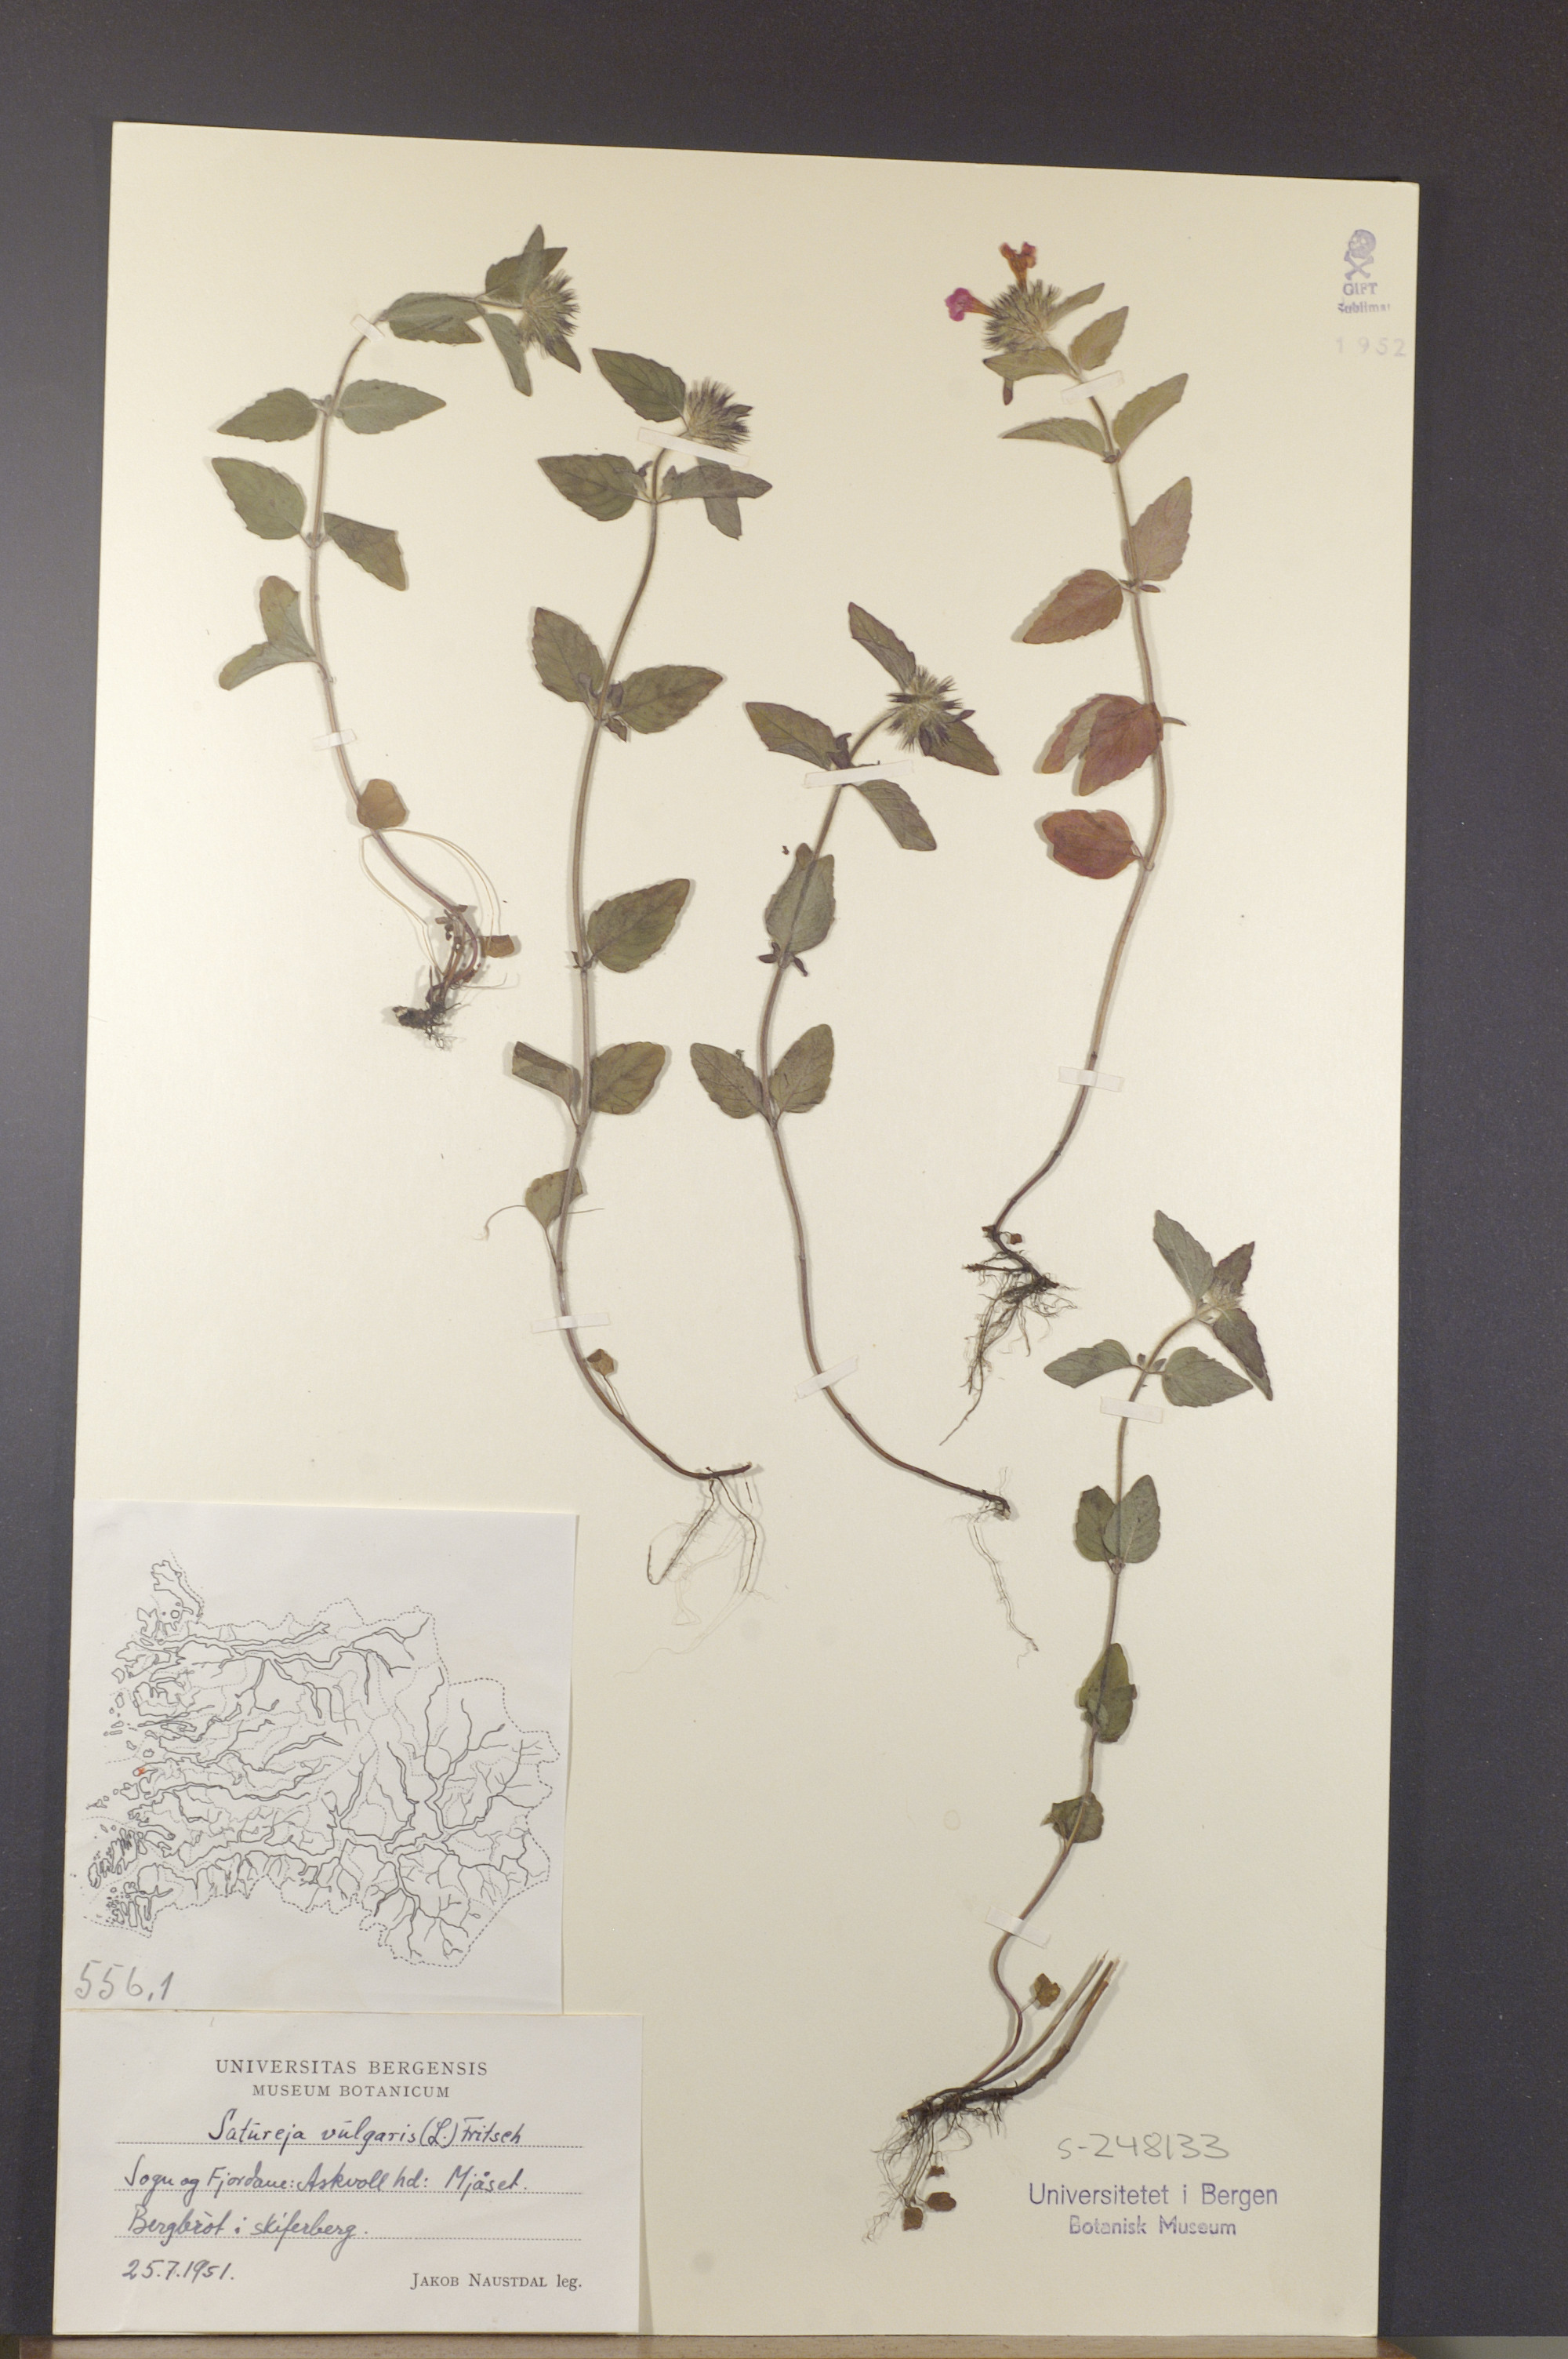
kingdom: Plantae
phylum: Tracheophyta
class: Magnoliopsida
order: Lamiales
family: Lamiaceae
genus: Clinopodium
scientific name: Clinopodium vulgare
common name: Wild basil
